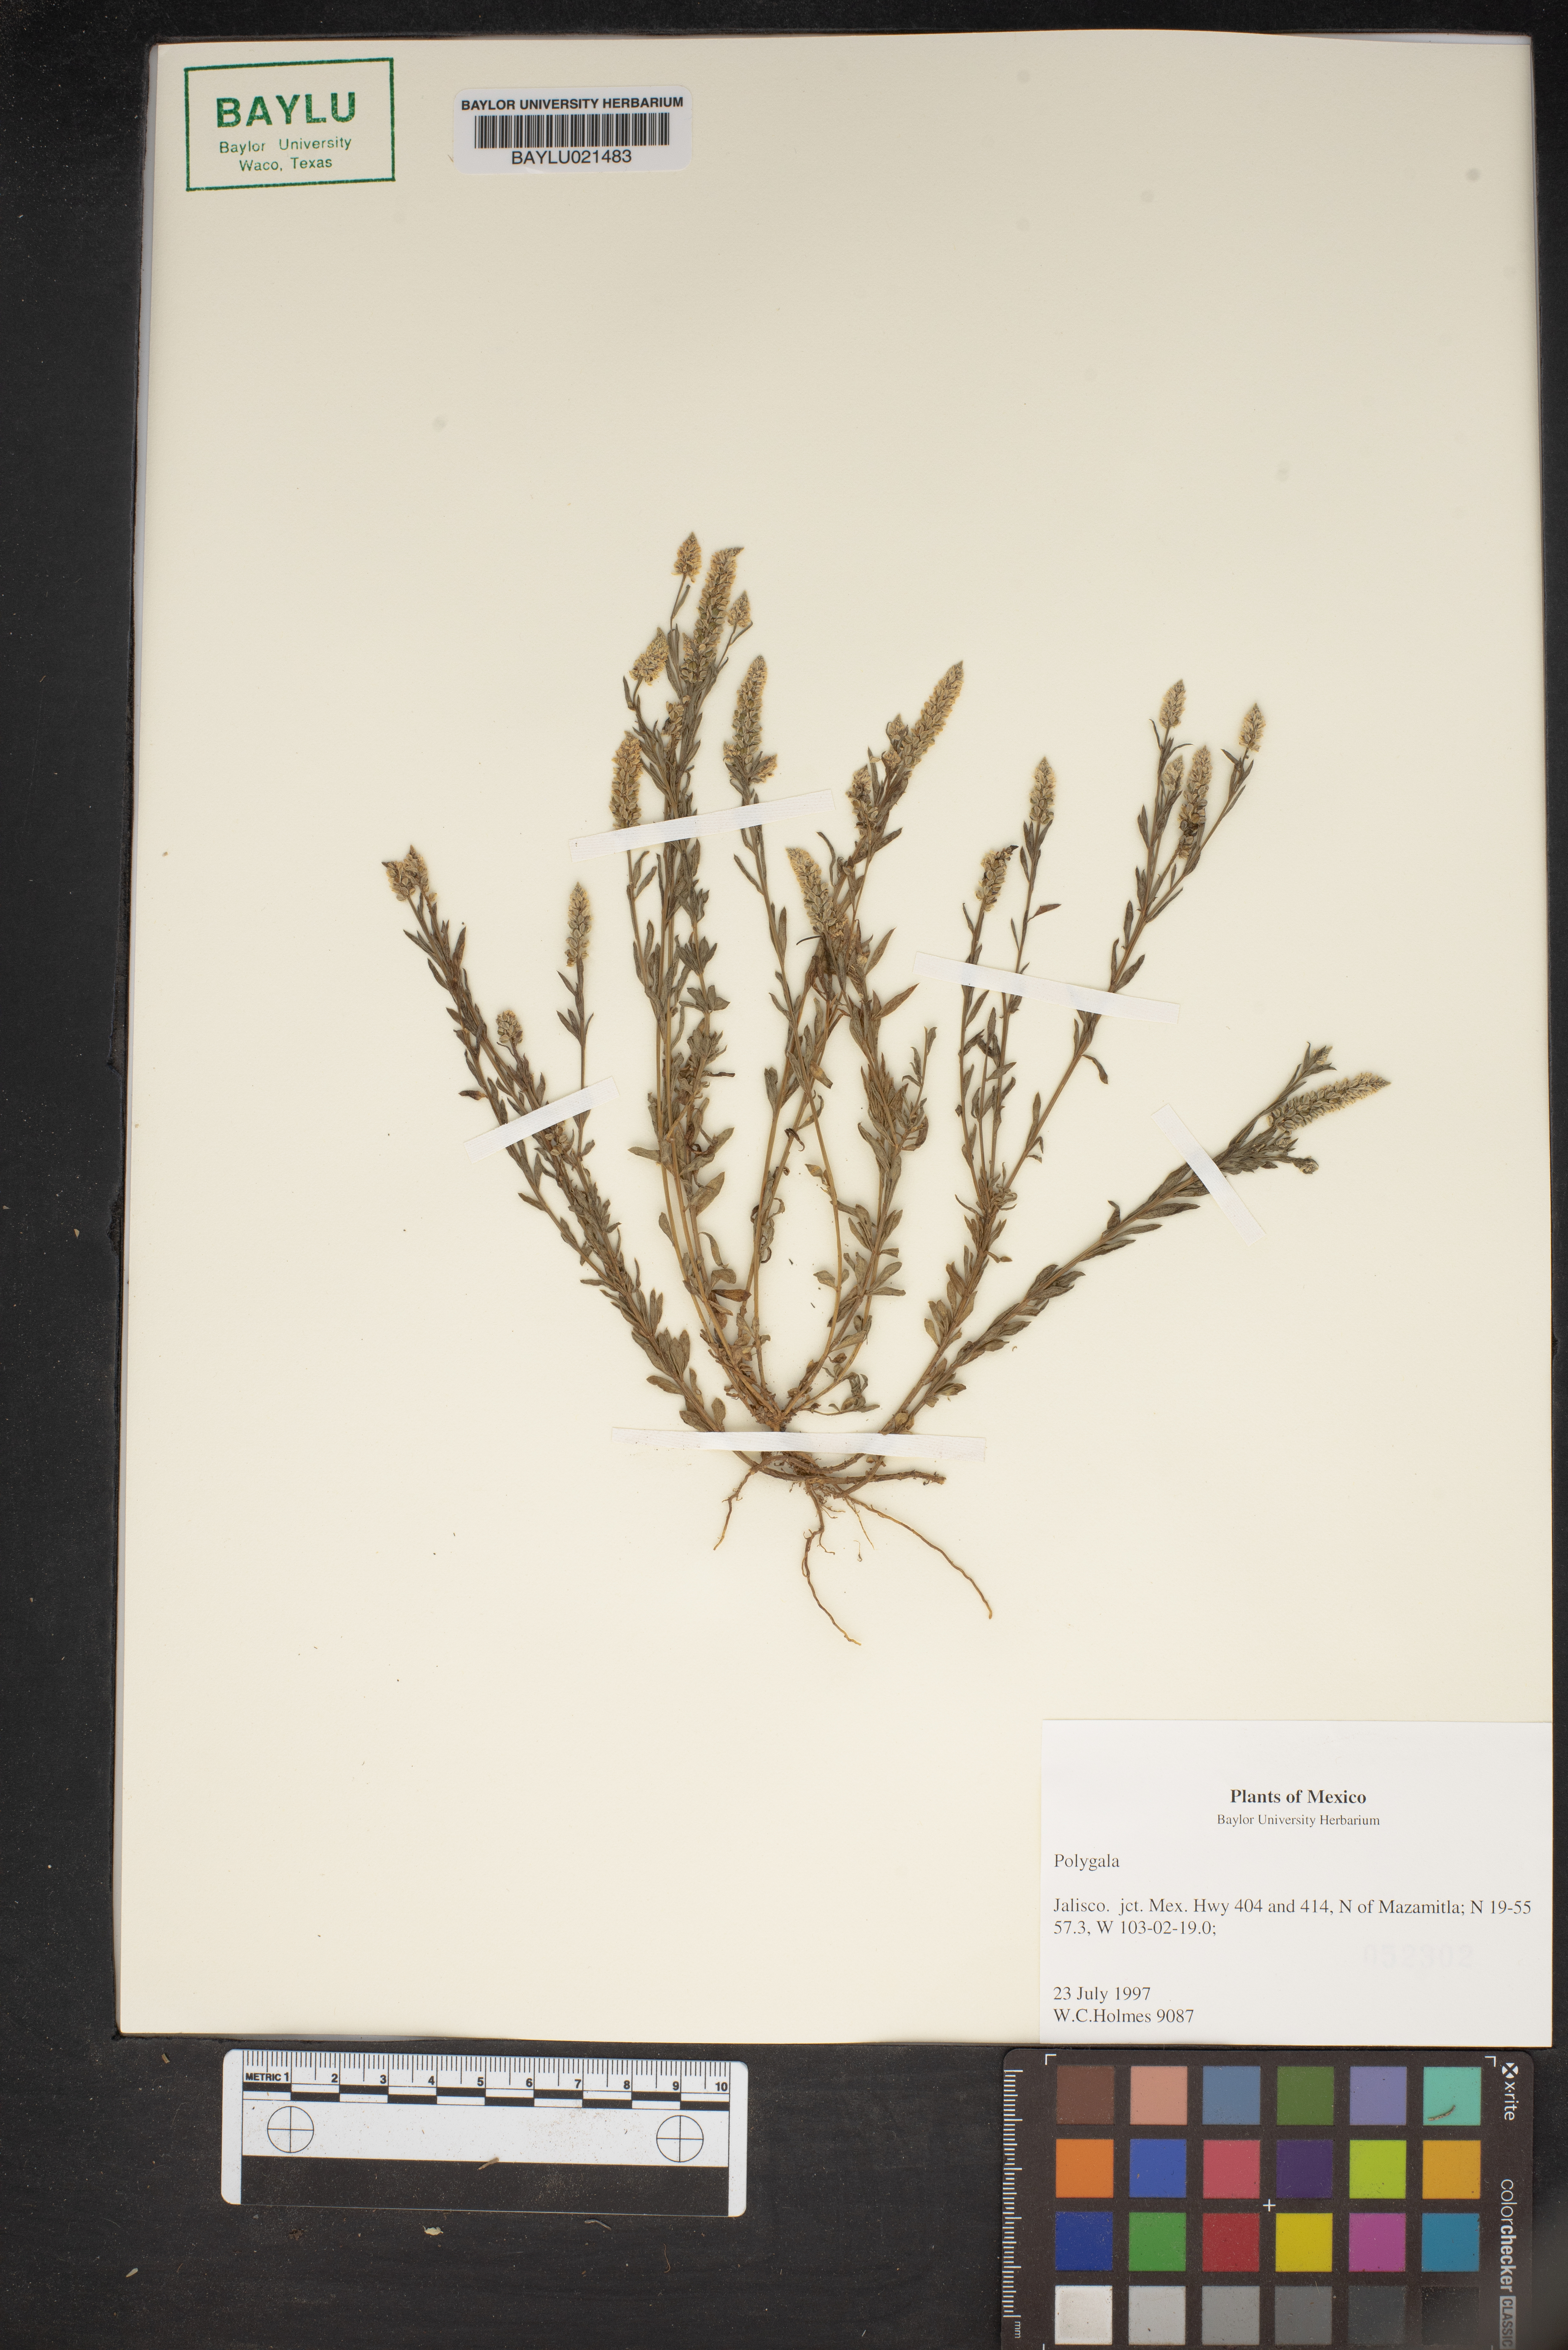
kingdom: Plantae
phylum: Tracheophyta
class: Magnoliopsida
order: Fabales
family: Polygalaceae
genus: Polygala
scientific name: Polygala
